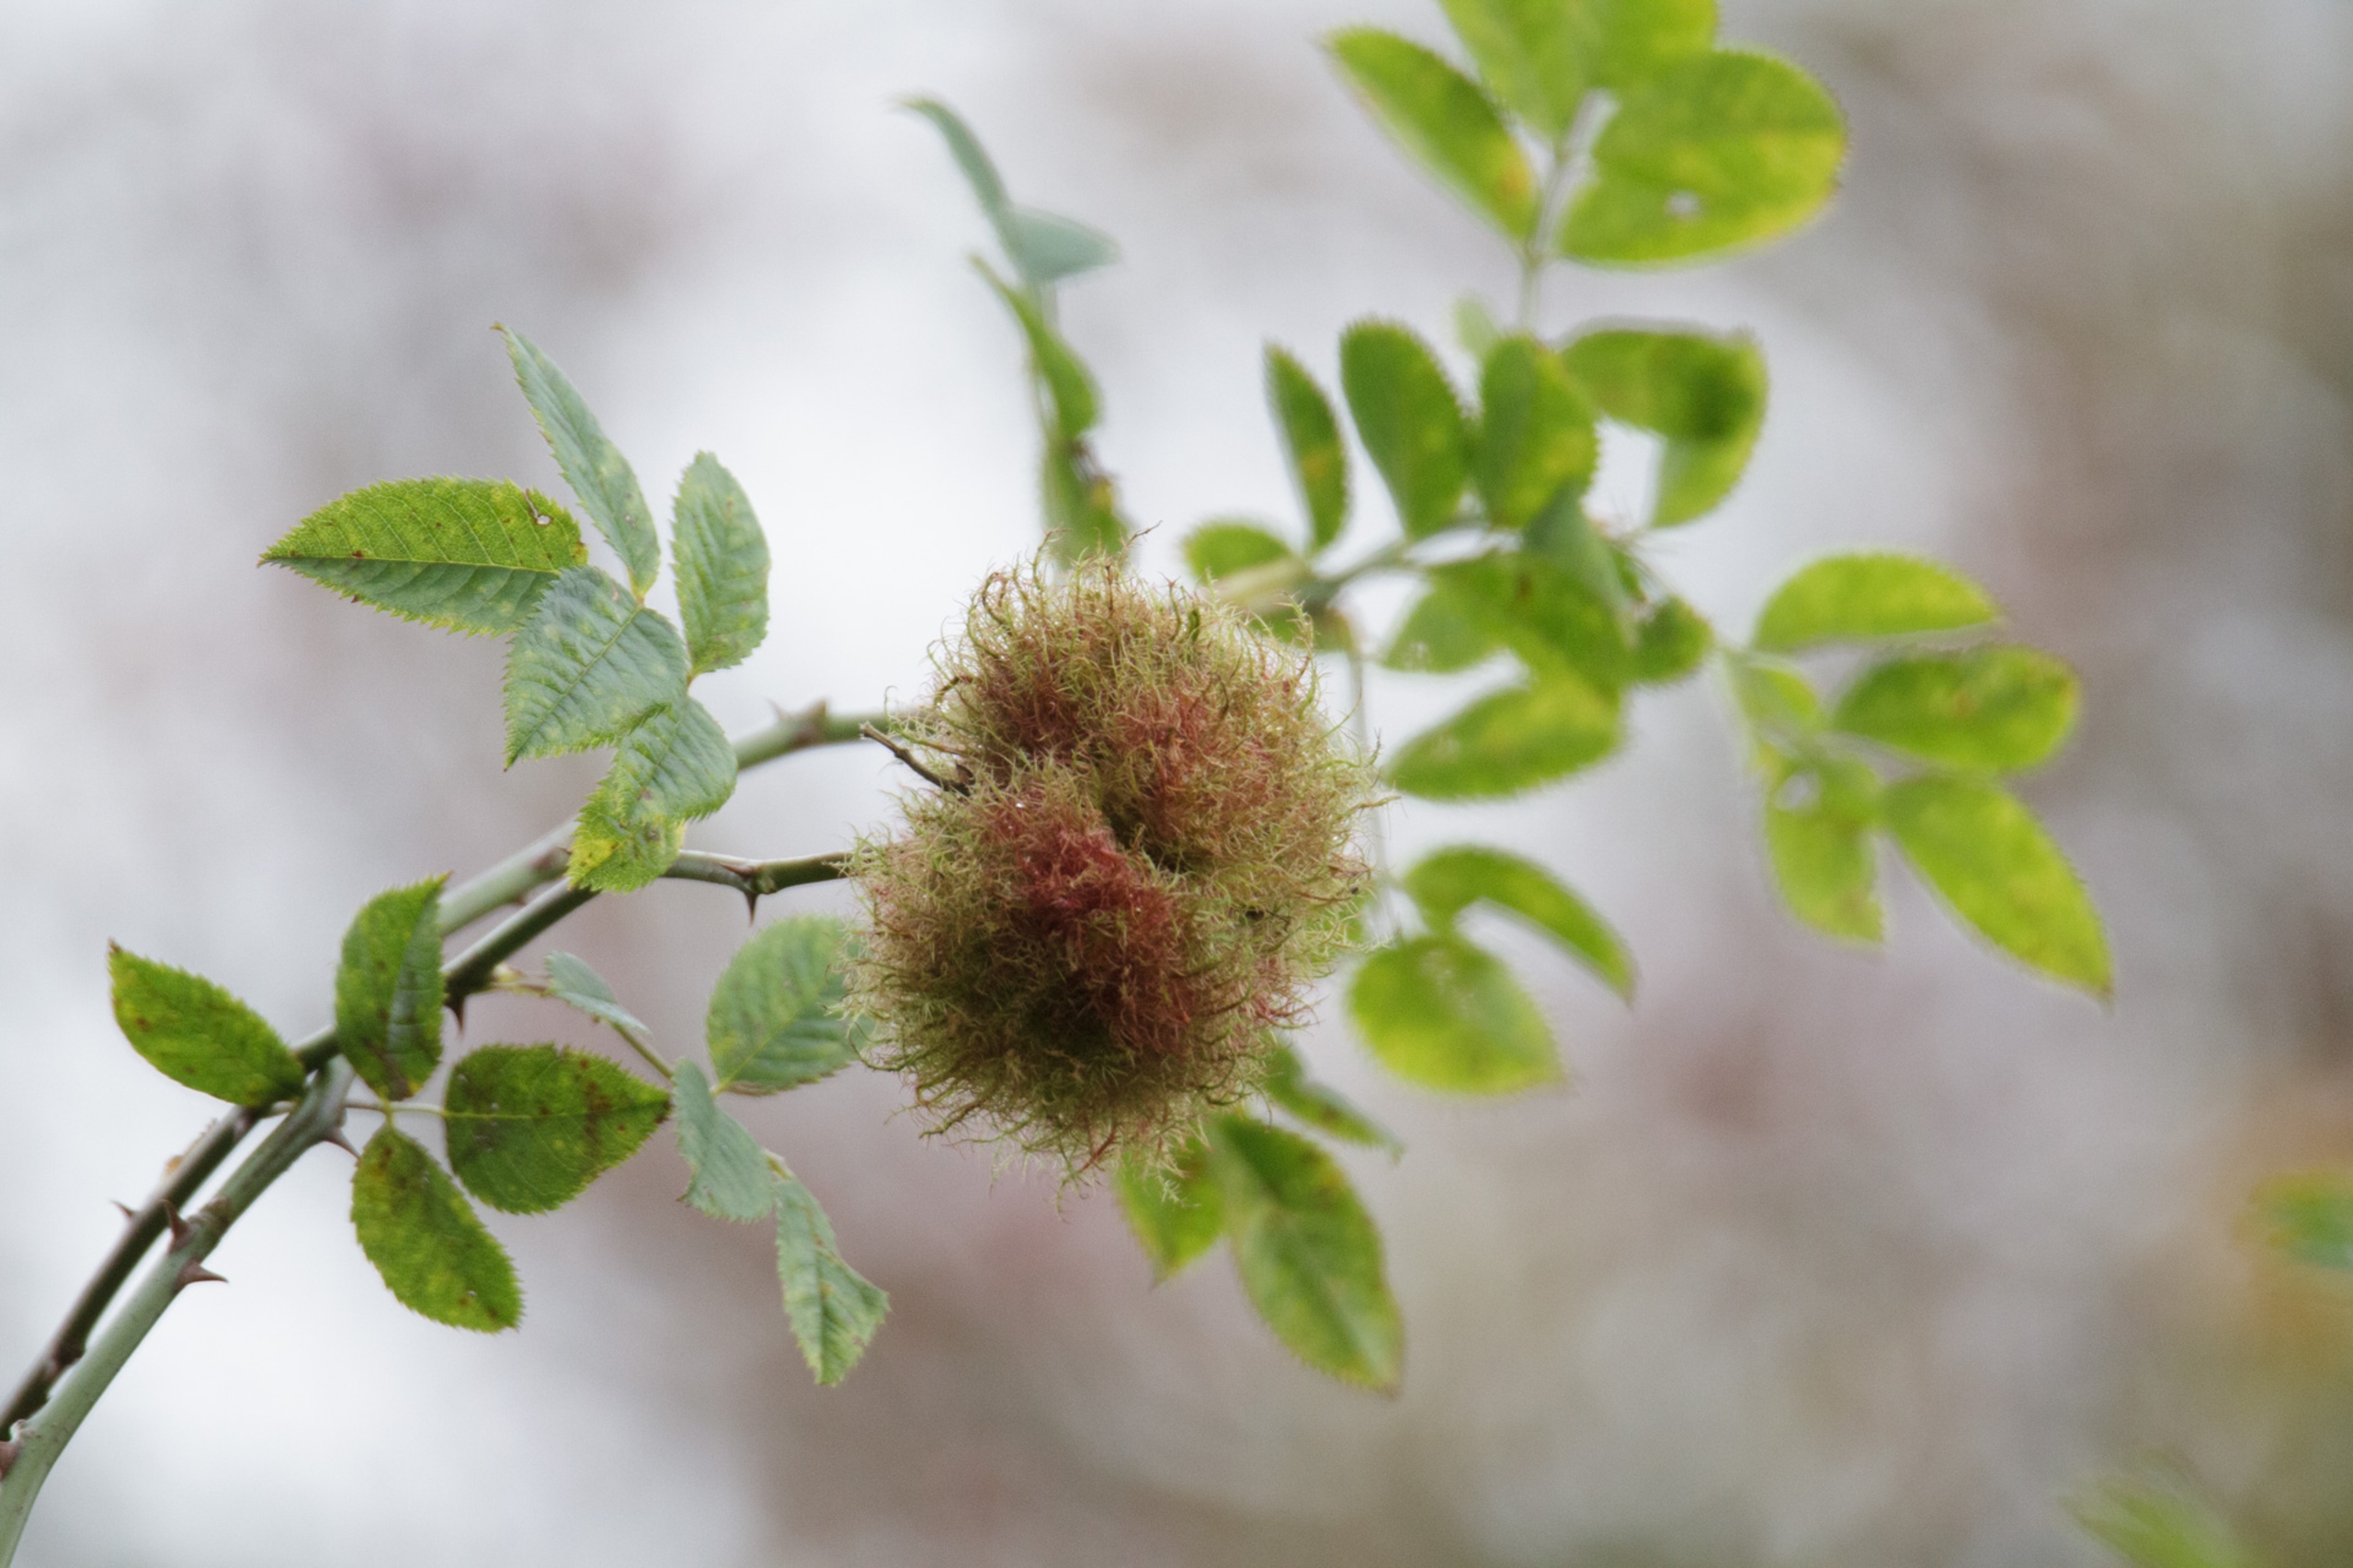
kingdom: Animalia
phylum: Arthropoda
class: Insecta
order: Hymenoptera
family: Cynipidae
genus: Diplolepis
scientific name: Diplolepis rosae
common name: Bedeguargalhveps
